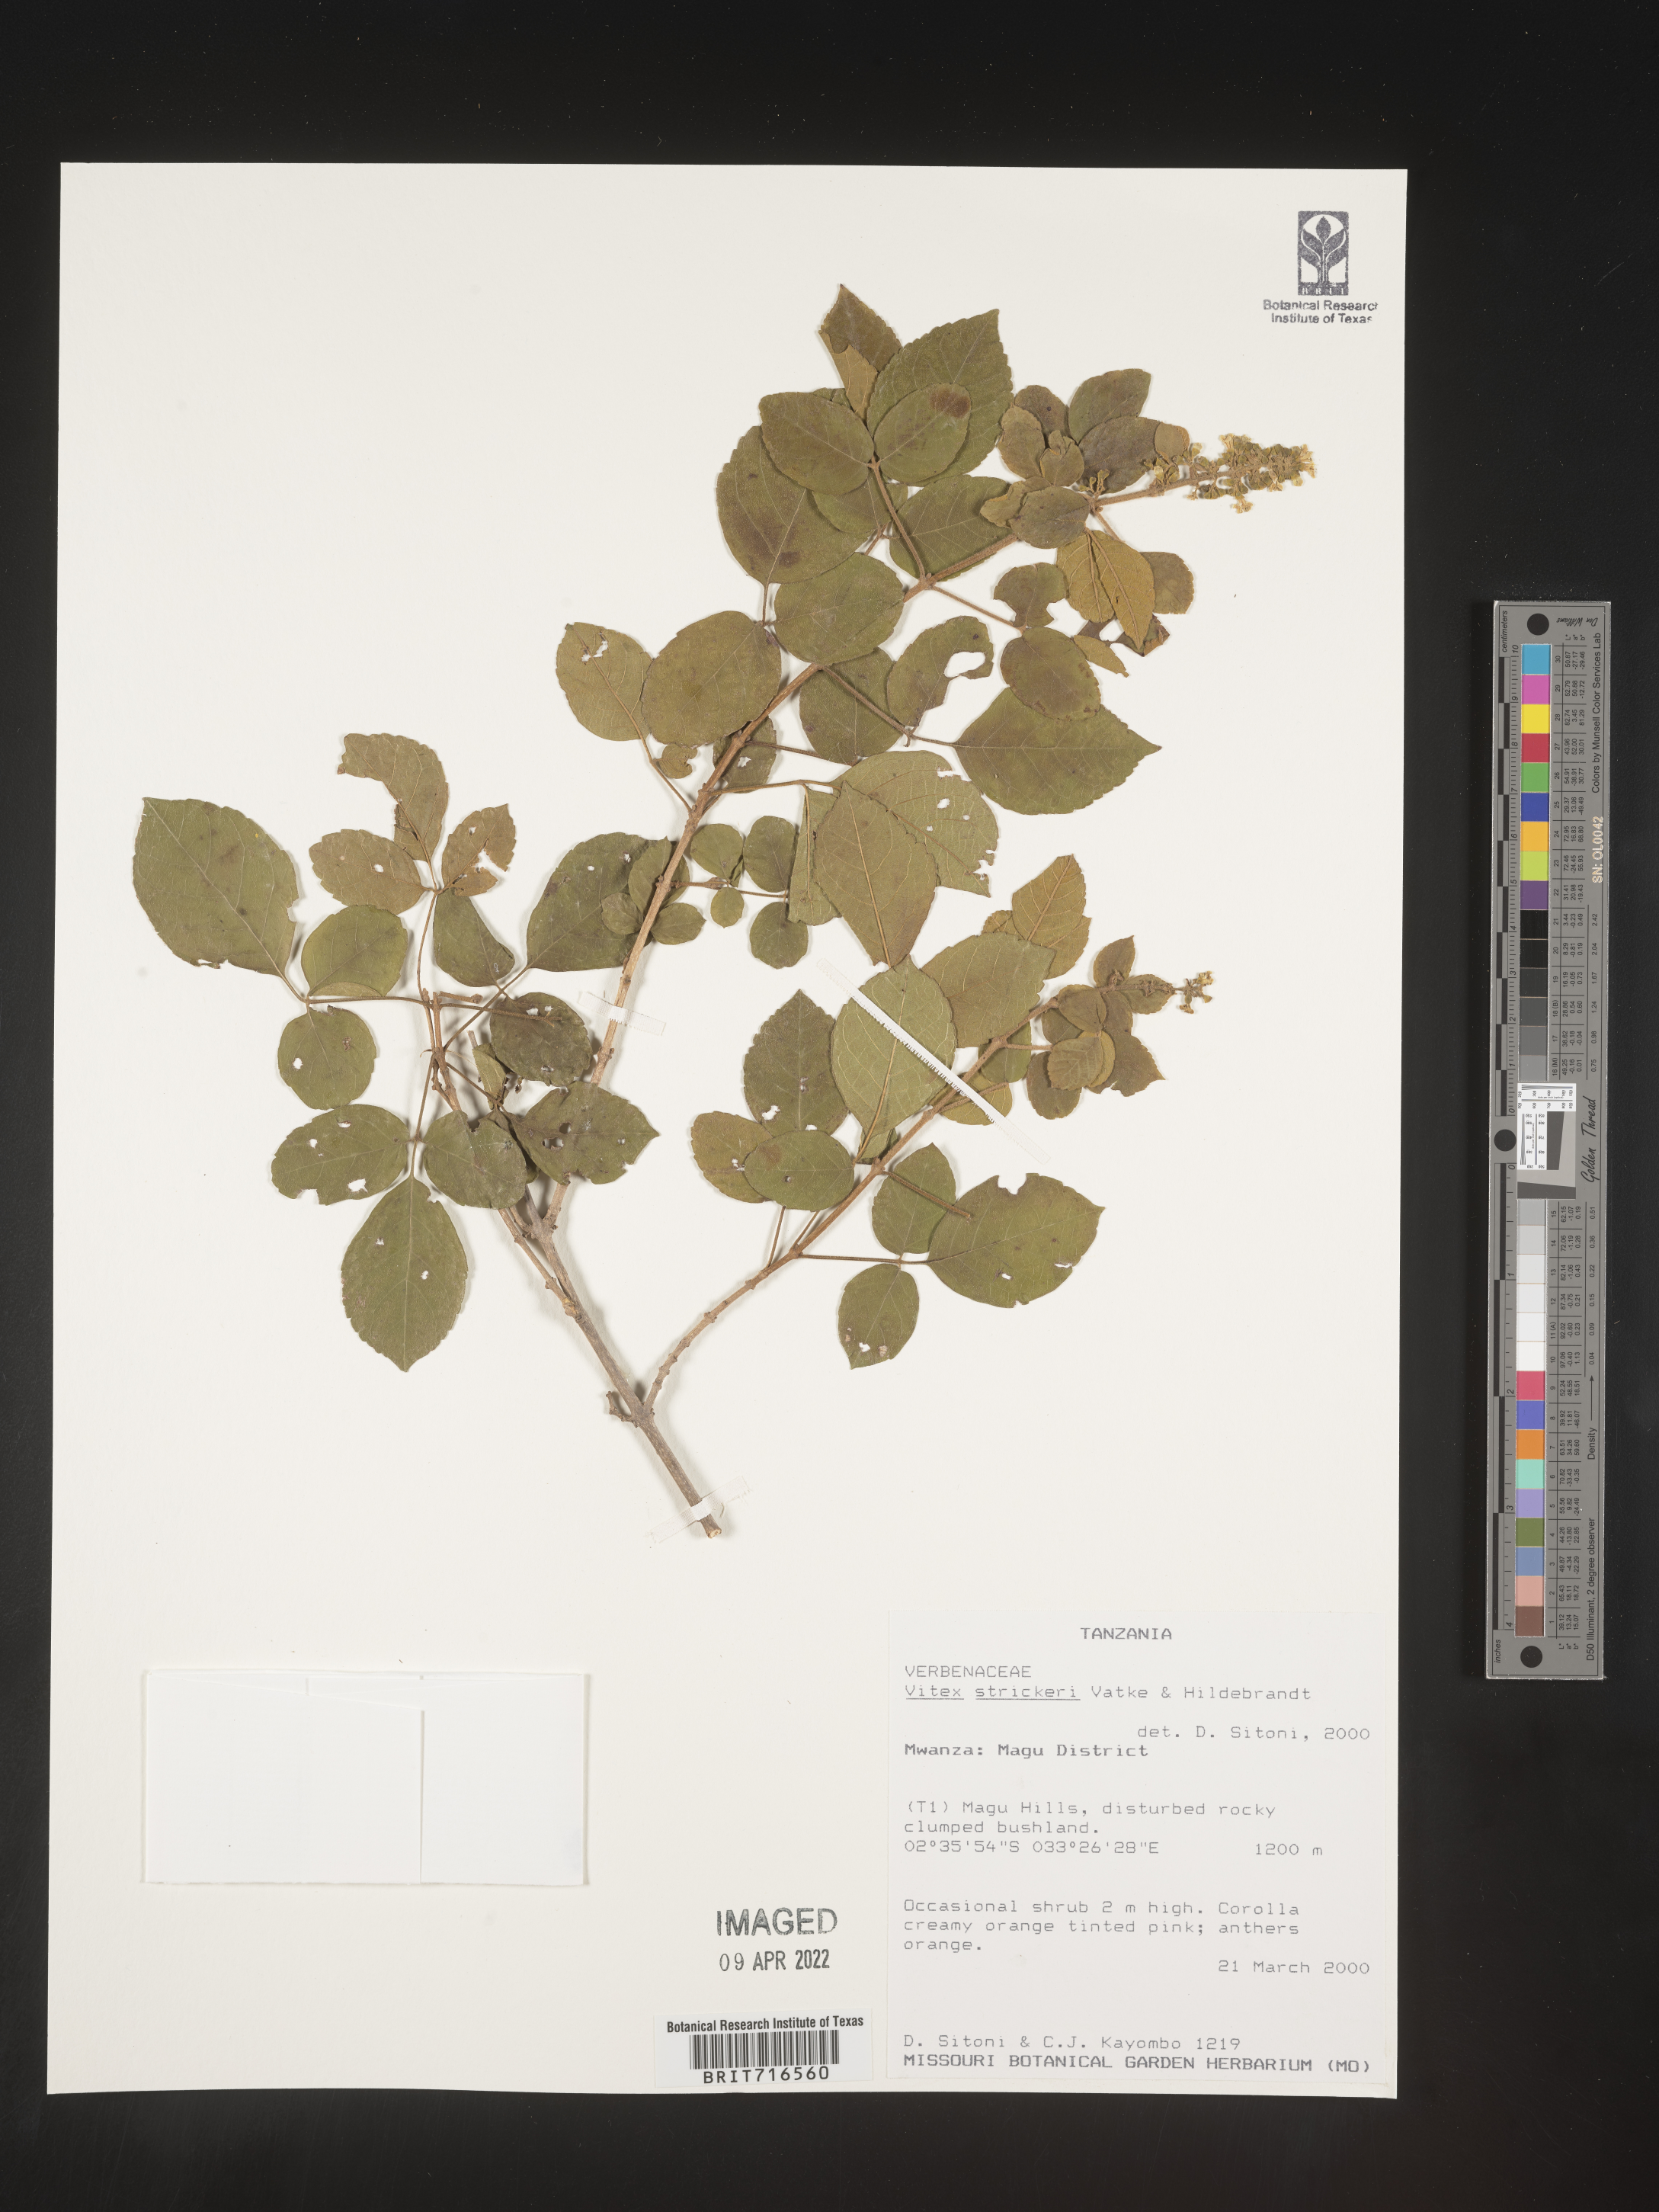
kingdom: Plantae
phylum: Tracheophyta
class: Magnoliopsida
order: Lamiales
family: Lamiaceae
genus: Vitex
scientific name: Vitex
